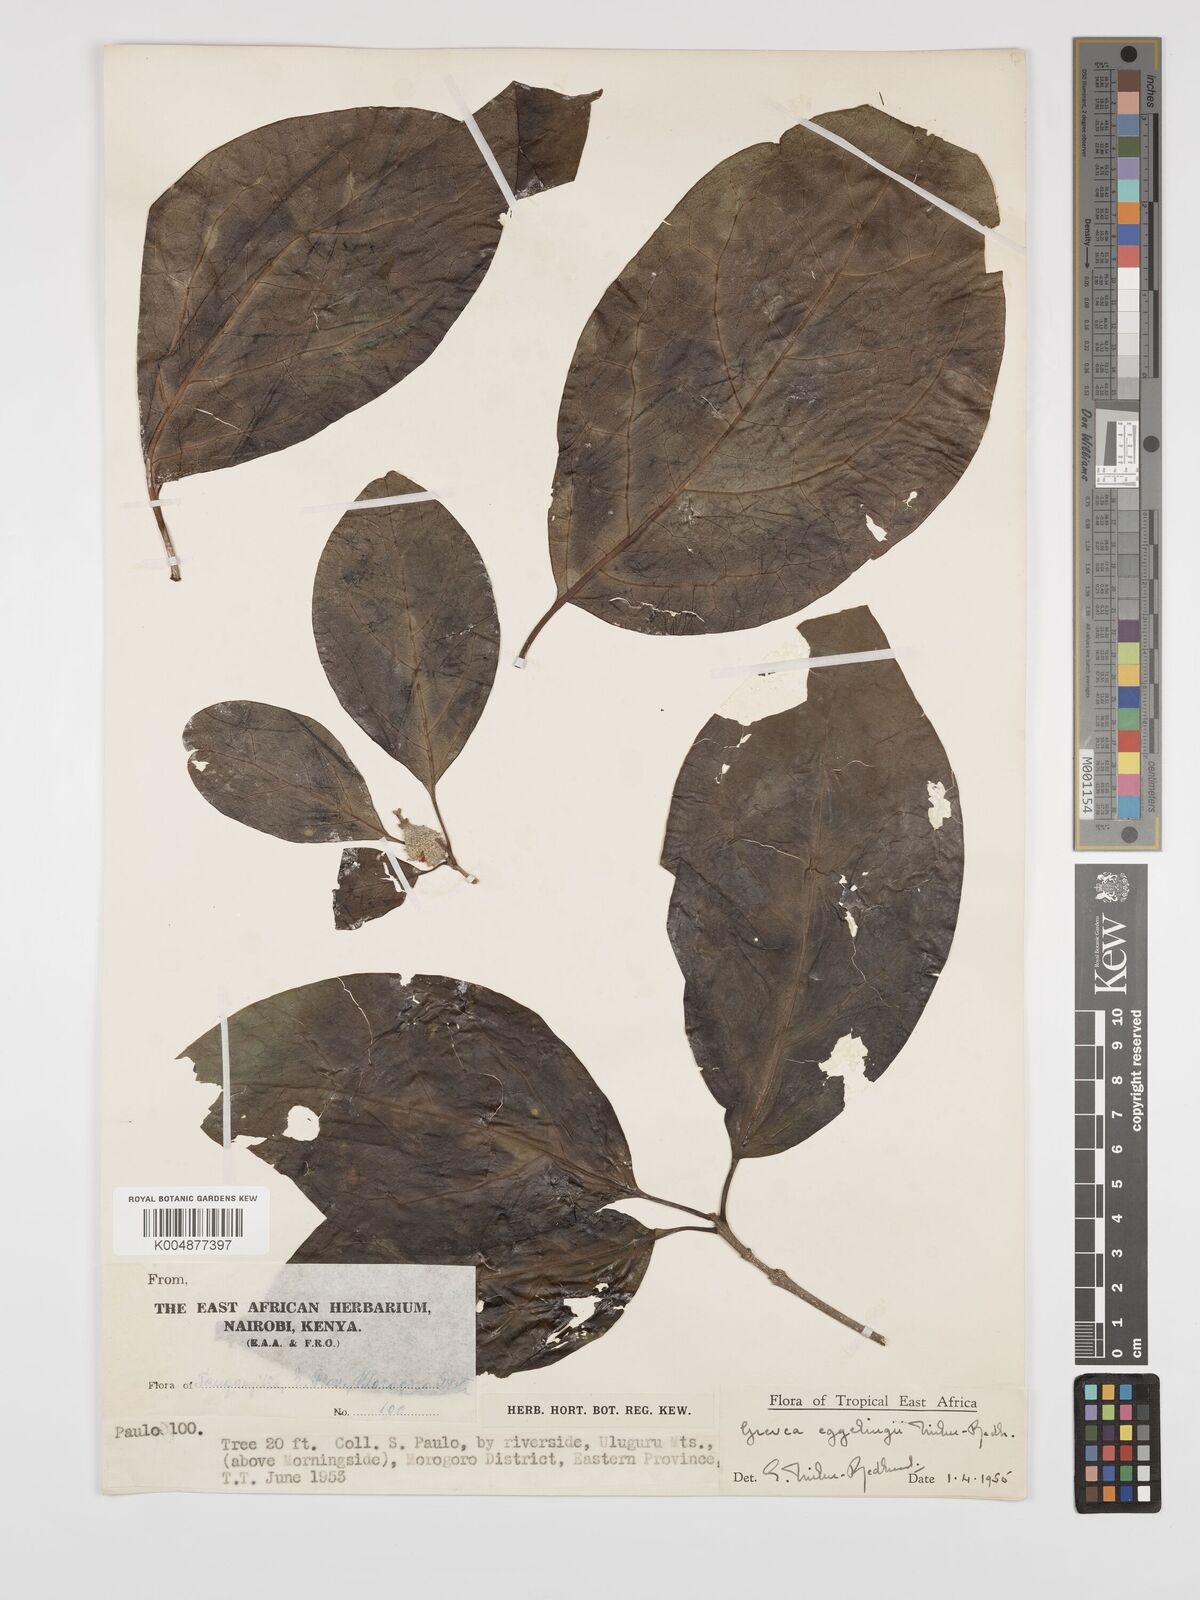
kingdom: Plantae
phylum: Tracheophyta
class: Magnoliopsida
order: Solanales
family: Montiniaceae
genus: Grevea
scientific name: Grevea eggelingii
